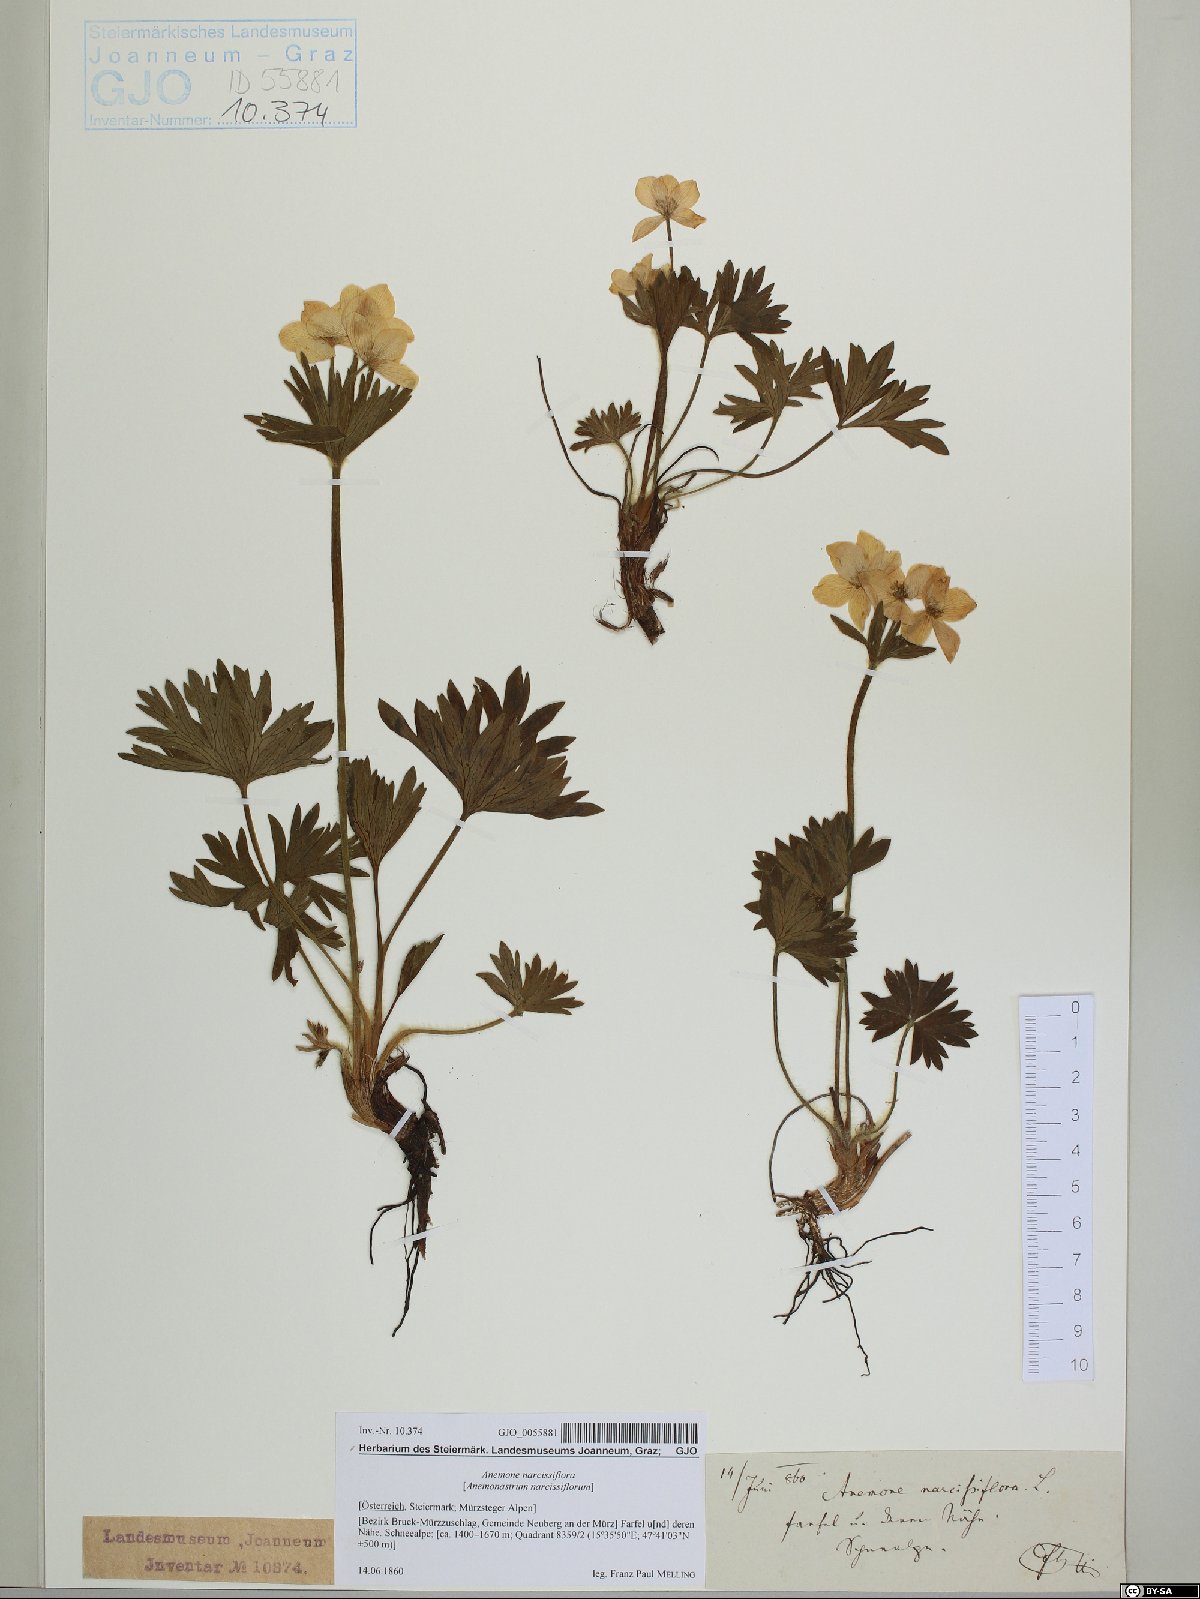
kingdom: Plantae
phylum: Tracheophyta
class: Magnoliopsida
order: Ranunculales
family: Ranunculaceae
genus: Anemonastrum
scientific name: Anemonastrum narcissiflorum
